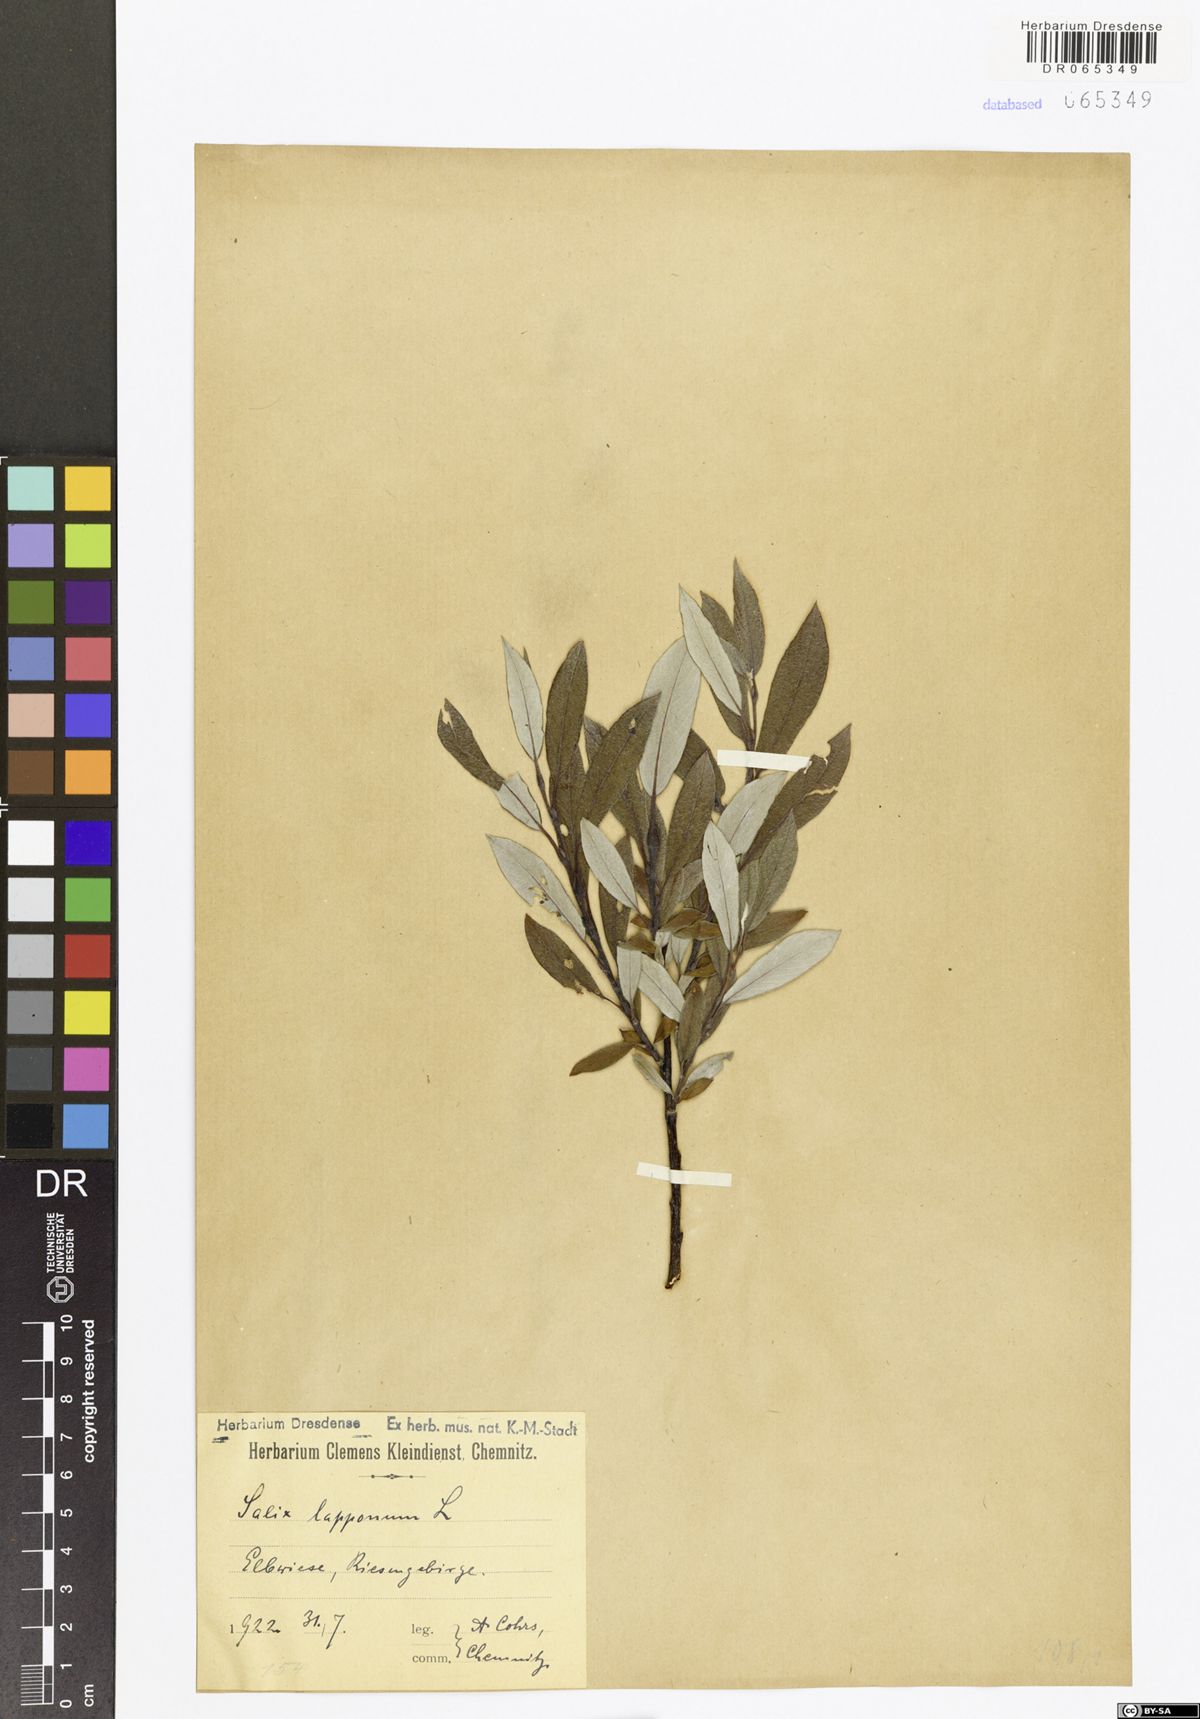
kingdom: Plantae
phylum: Tracheophyta
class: Magnoliopsida
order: Malpighiales
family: Salicaceae
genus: Salix
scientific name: Salix lapponum
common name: Downy willow
